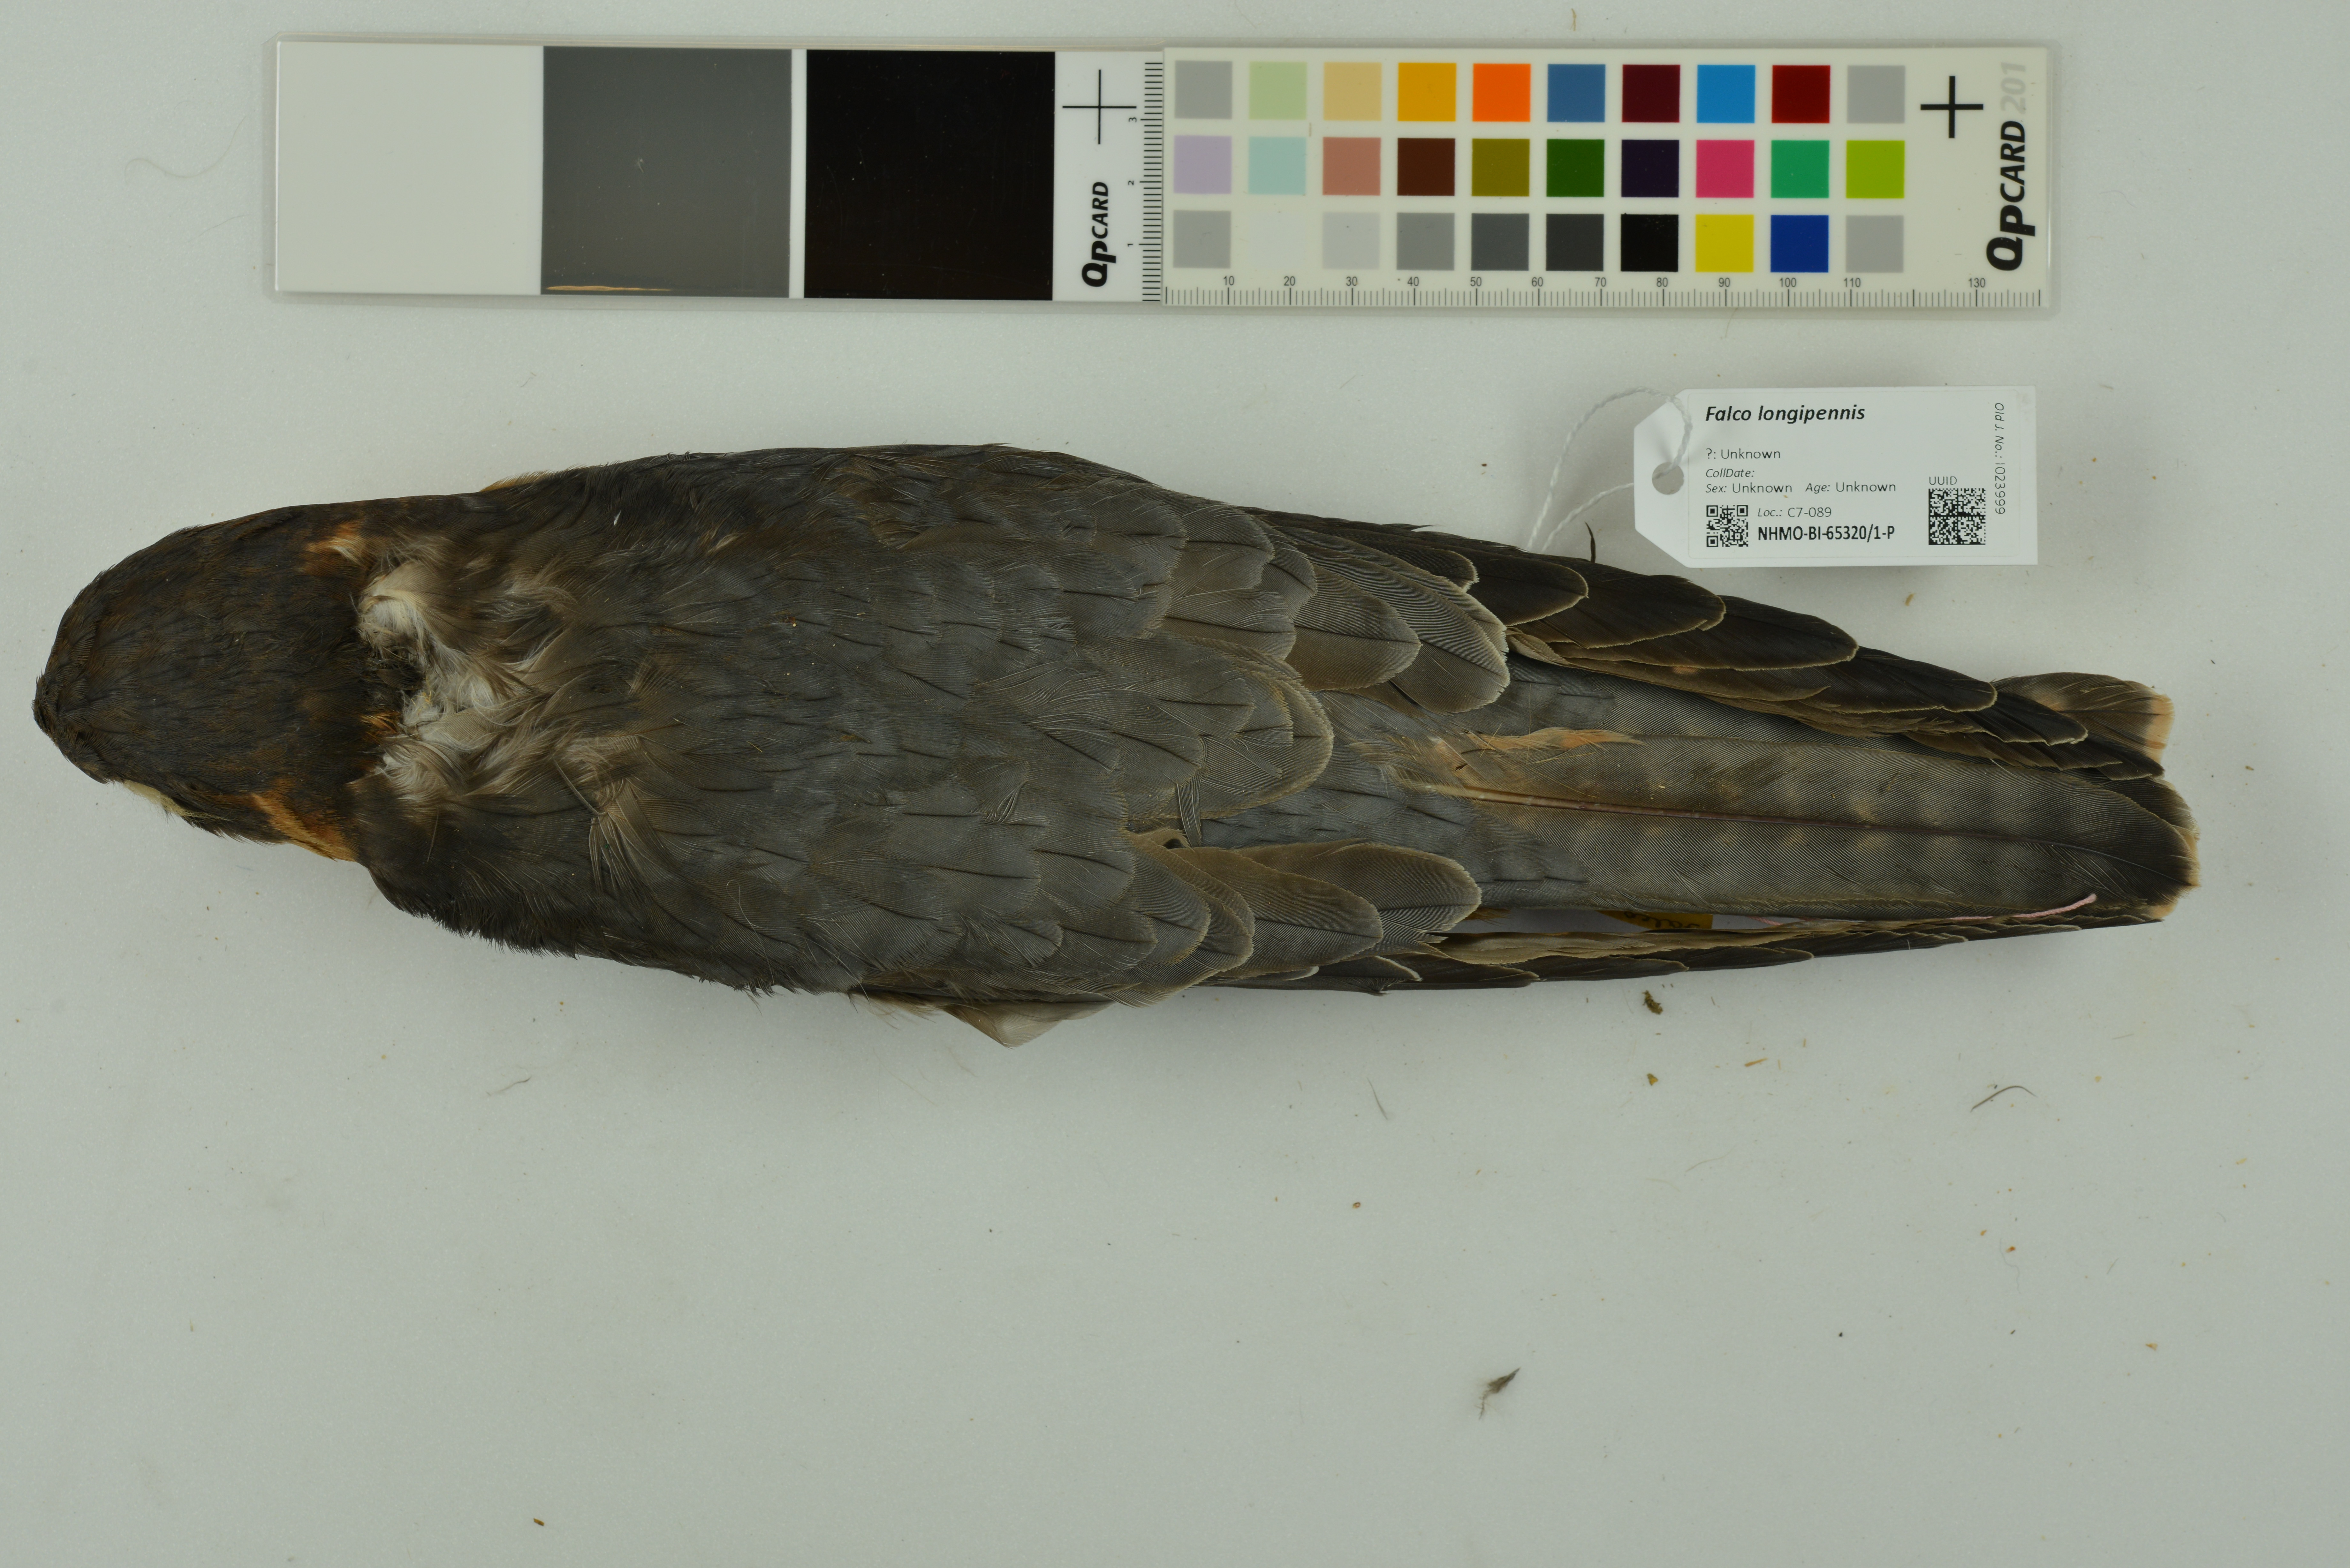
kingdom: Animalia
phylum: Chordata
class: Aves
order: Falconiformes
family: Falconidae
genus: Falco
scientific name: Falco longipennis
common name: Australian hobby
